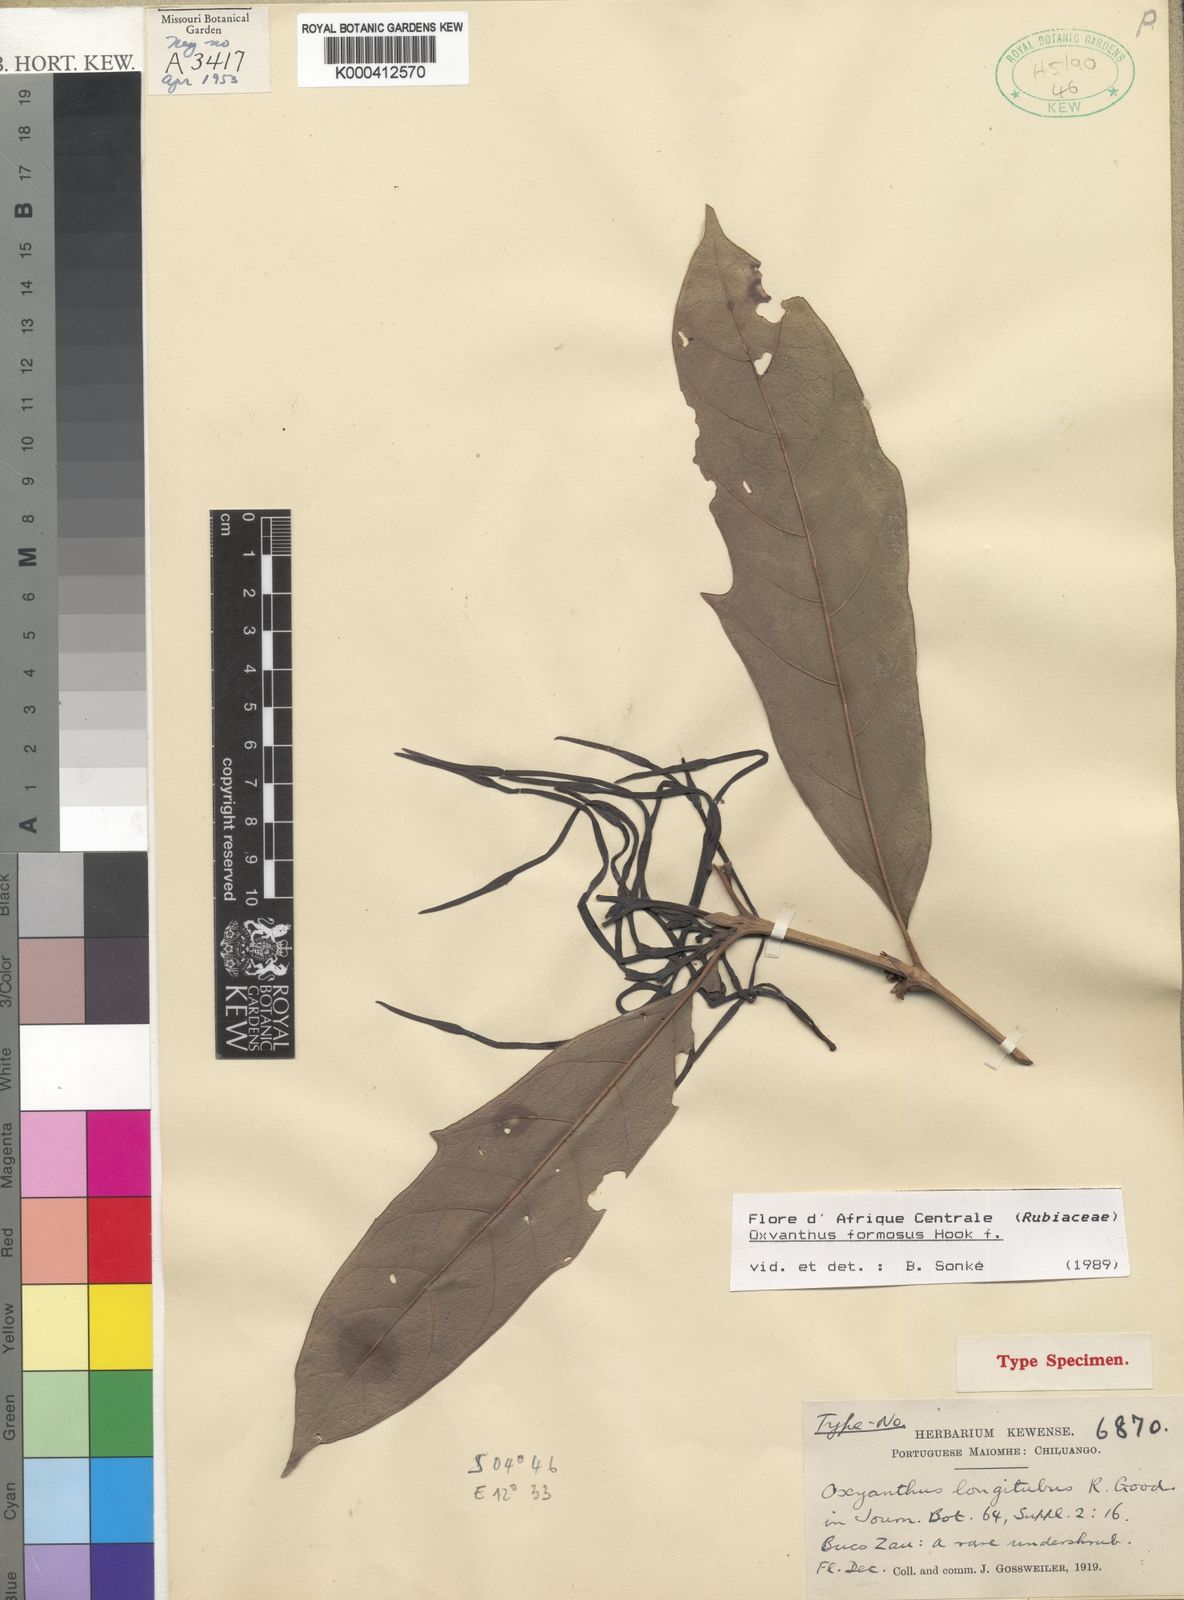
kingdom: Plantae
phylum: Tracheophyta
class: Magnoliopsida
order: Gentianales
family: Rubiaceae
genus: Oxyanthus
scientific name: Oxyanthus formosus
